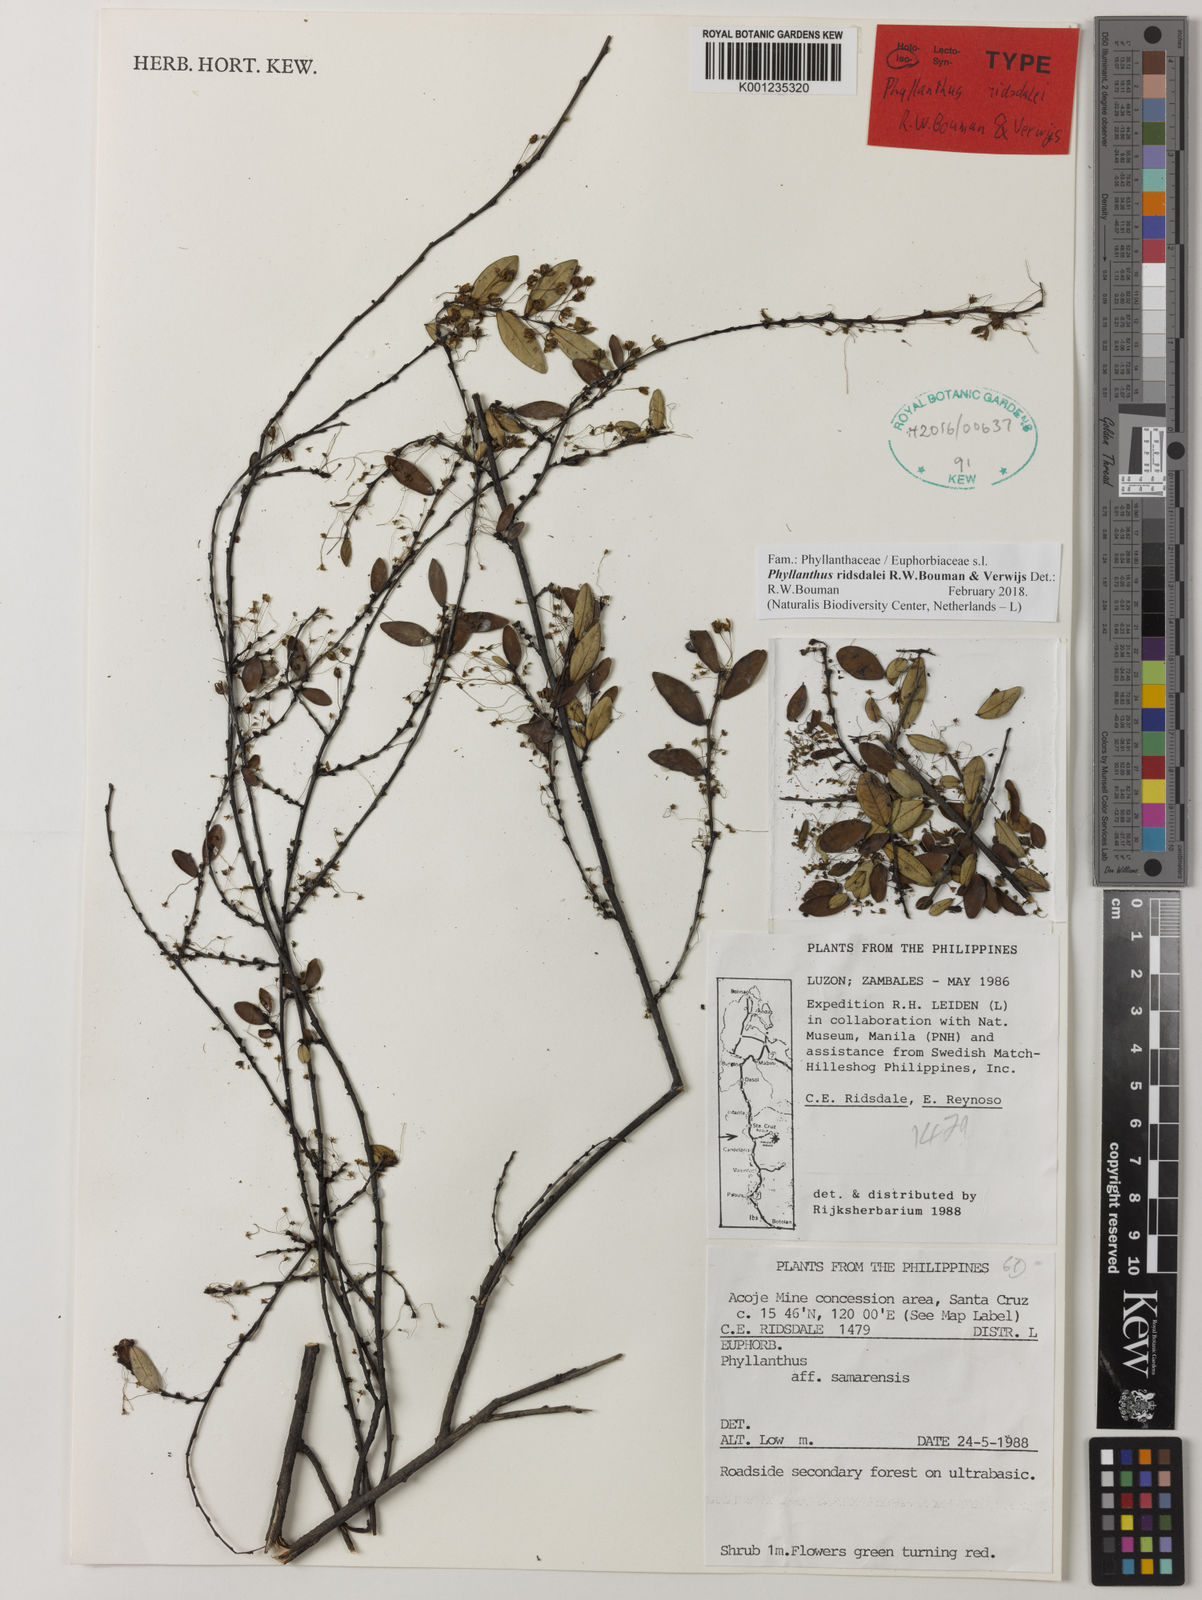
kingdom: Plantae
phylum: Tracheophyta
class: Magnoliopsida
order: Malpighiales
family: Phyllanthaceae
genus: Phyllanthus
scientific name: Phyllanthus
